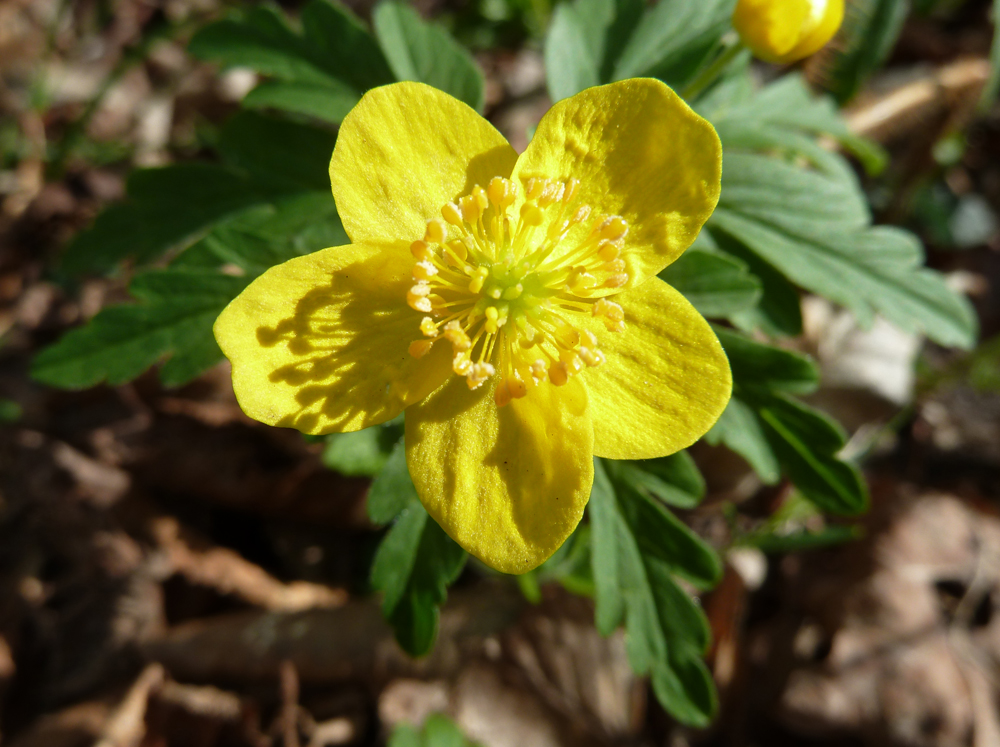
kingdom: Plantae
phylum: Tracheophyta
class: Magnoliopsida
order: Ranunculales
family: Ranunculaceae
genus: Anemone
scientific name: Anemone ranunculoides
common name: Yellow anemone
